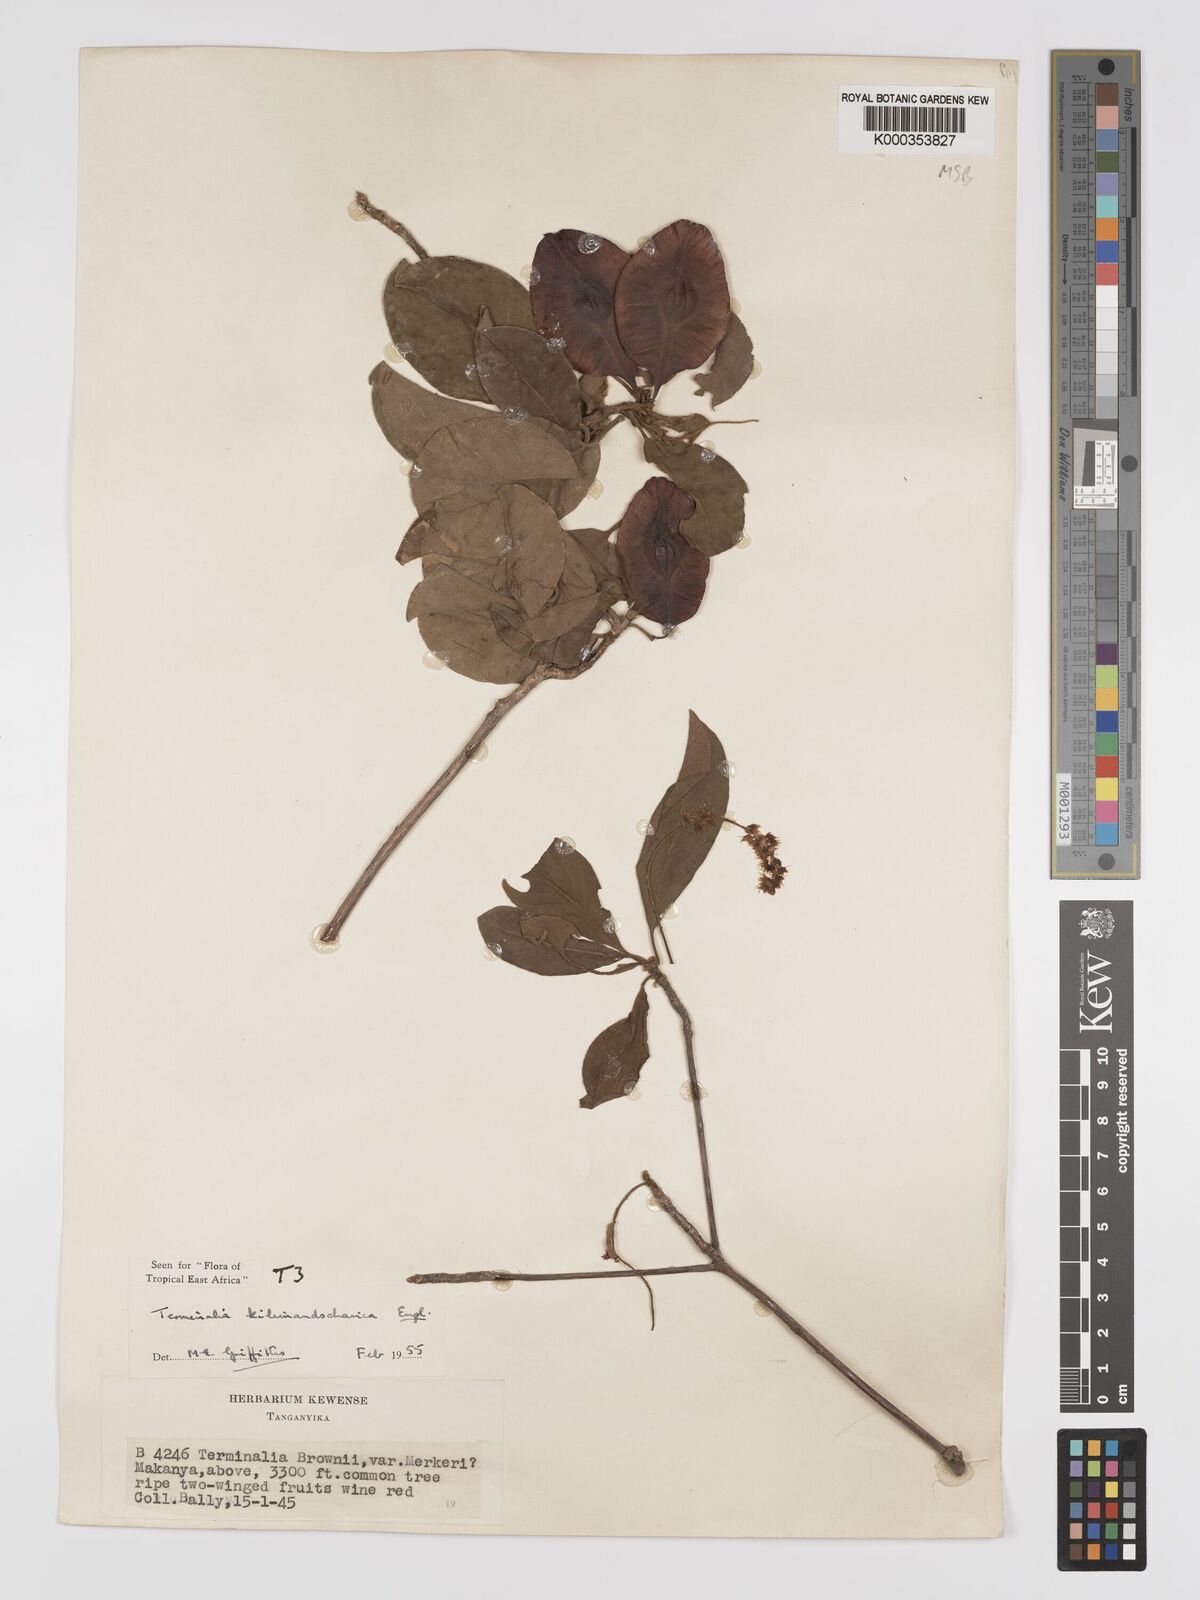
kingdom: Plantae
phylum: Tracheophyta
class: Magnoliopsida
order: Myrtales
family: Combretaceae
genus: Terminalia
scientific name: Terminalia kilimandscharica
